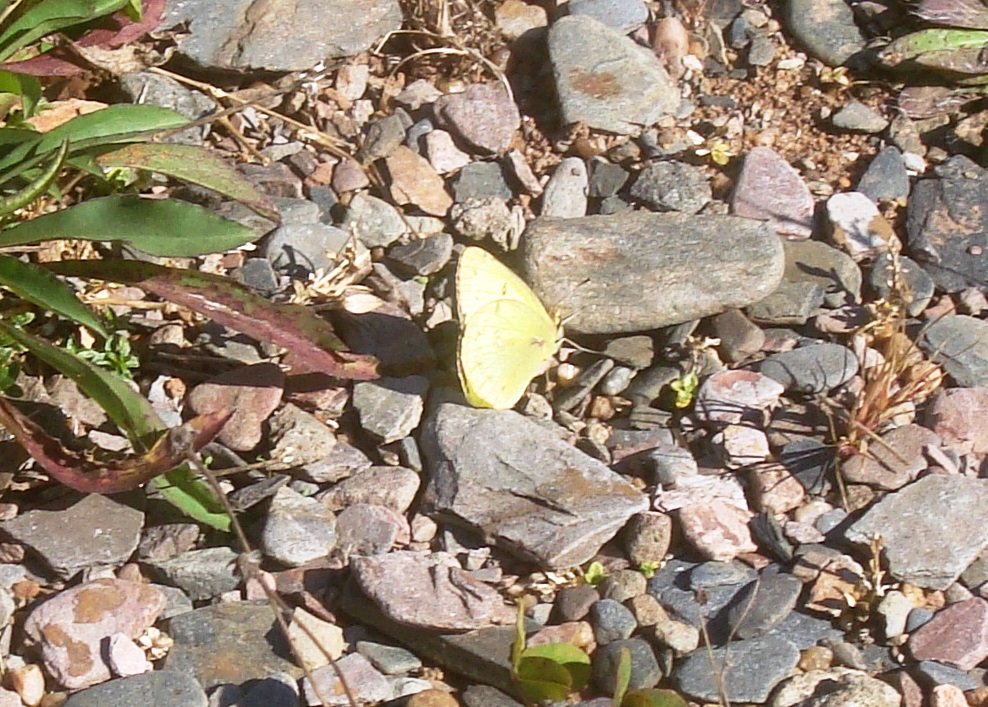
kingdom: Animalia
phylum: Arthropoda
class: Insecta
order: Lepidoptera
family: Pieridae
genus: Colias
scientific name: Colias philodice
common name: Clouded Sulphur
